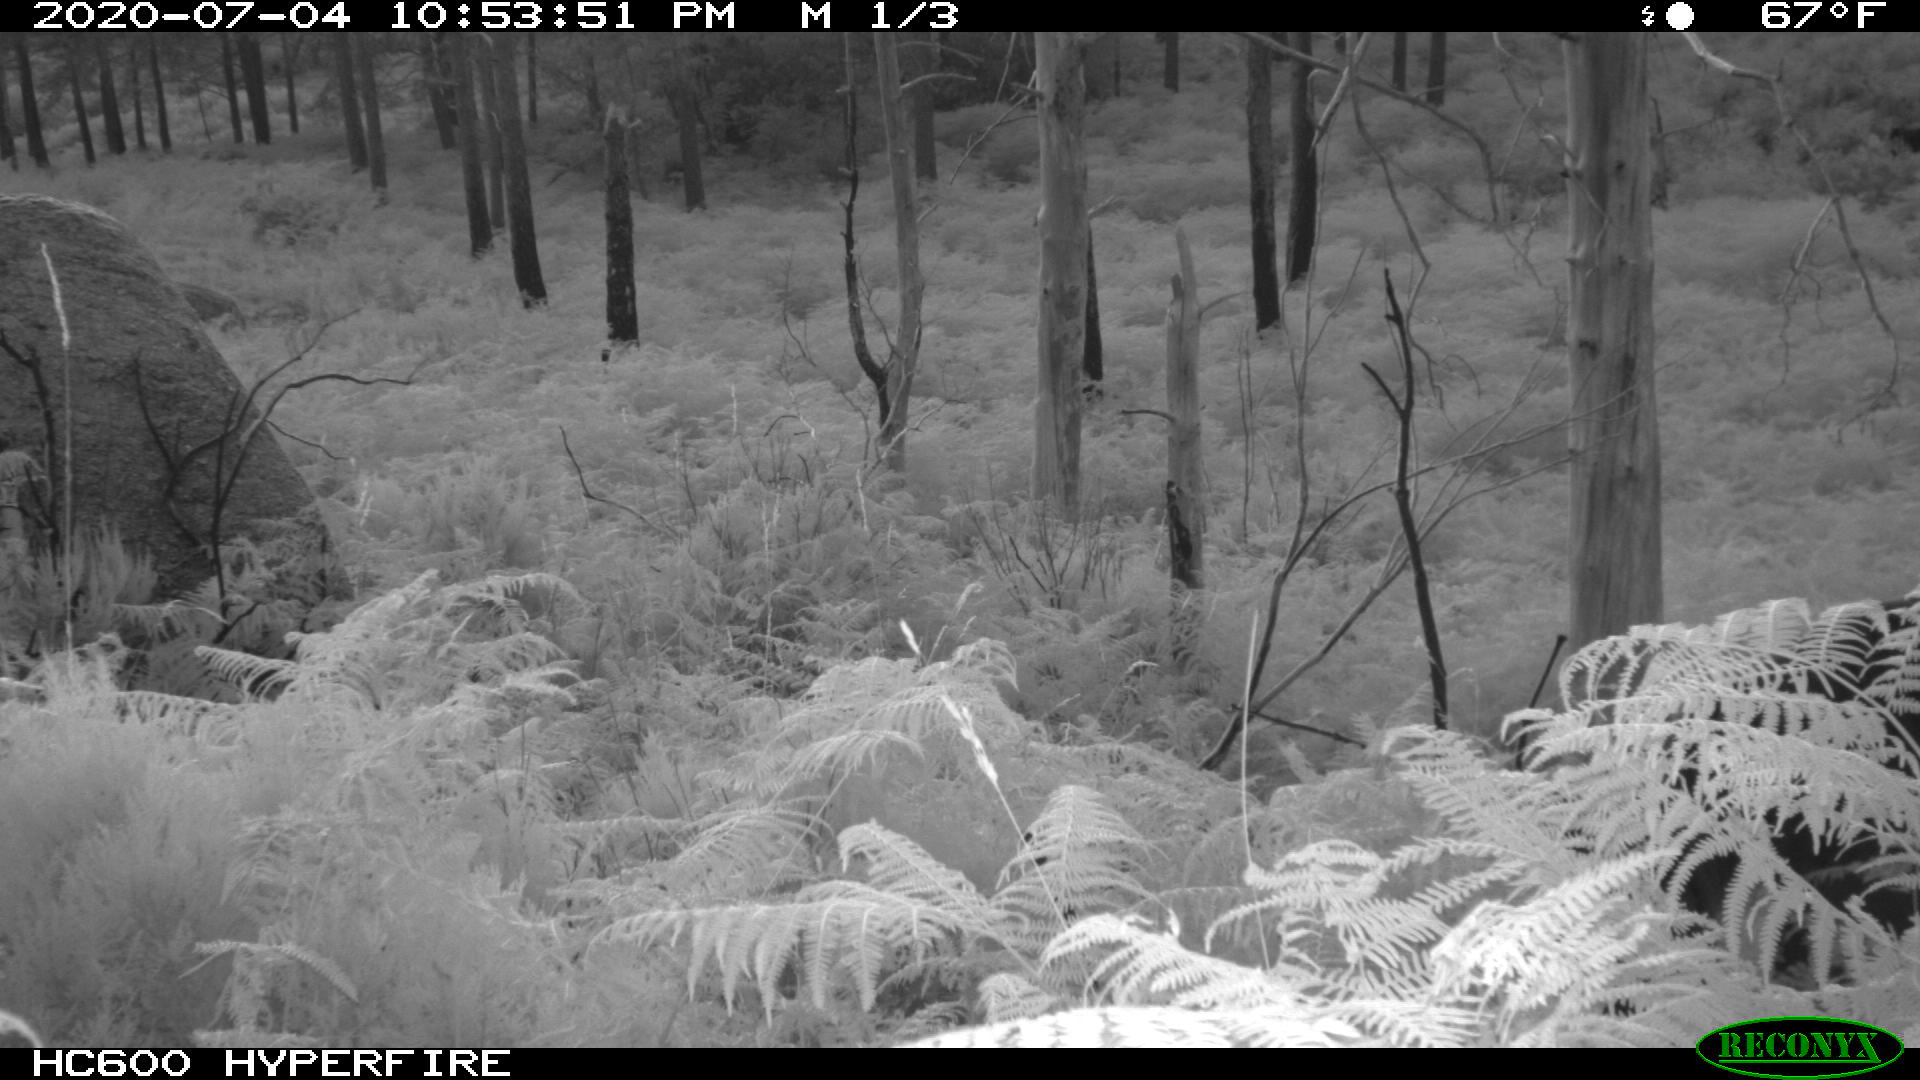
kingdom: Animalia
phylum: Chordata
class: Mammalia
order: Perissodactyla
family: Equidae
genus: Equus
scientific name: Equus caballus
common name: Horse
